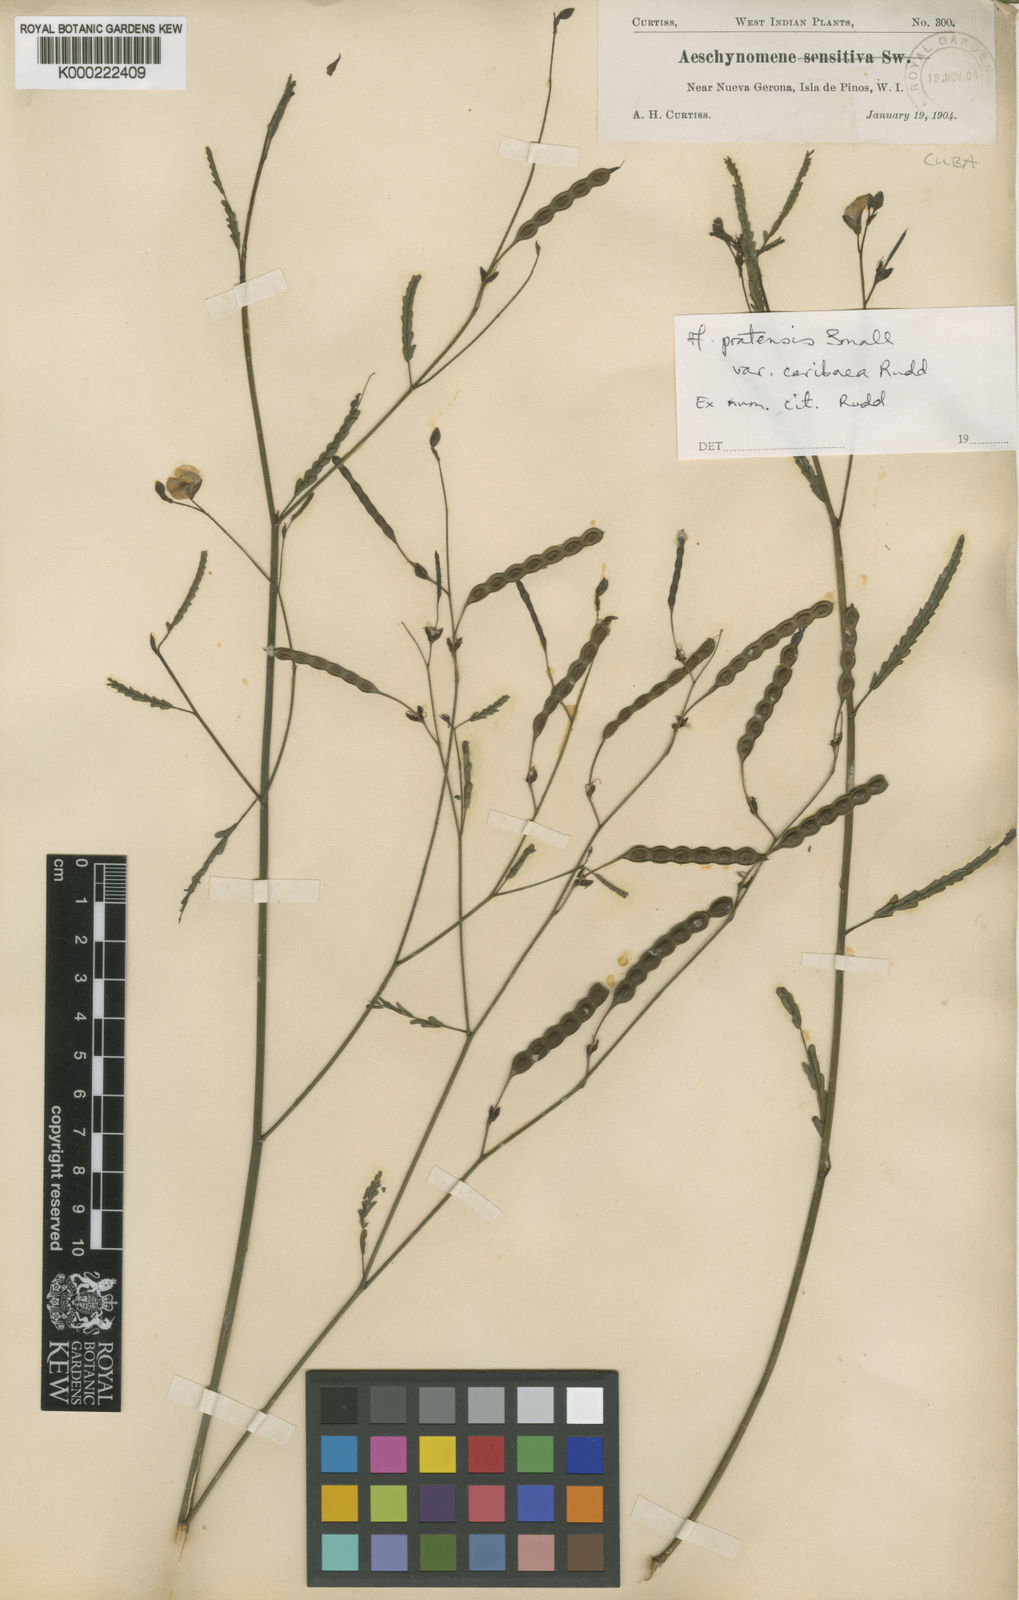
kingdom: Plantae
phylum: Tracheophyta
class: Magnoliopsida
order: Fabales
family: Fabaceae
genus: Aeschynomene
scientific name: Aeschynomene pratensis
